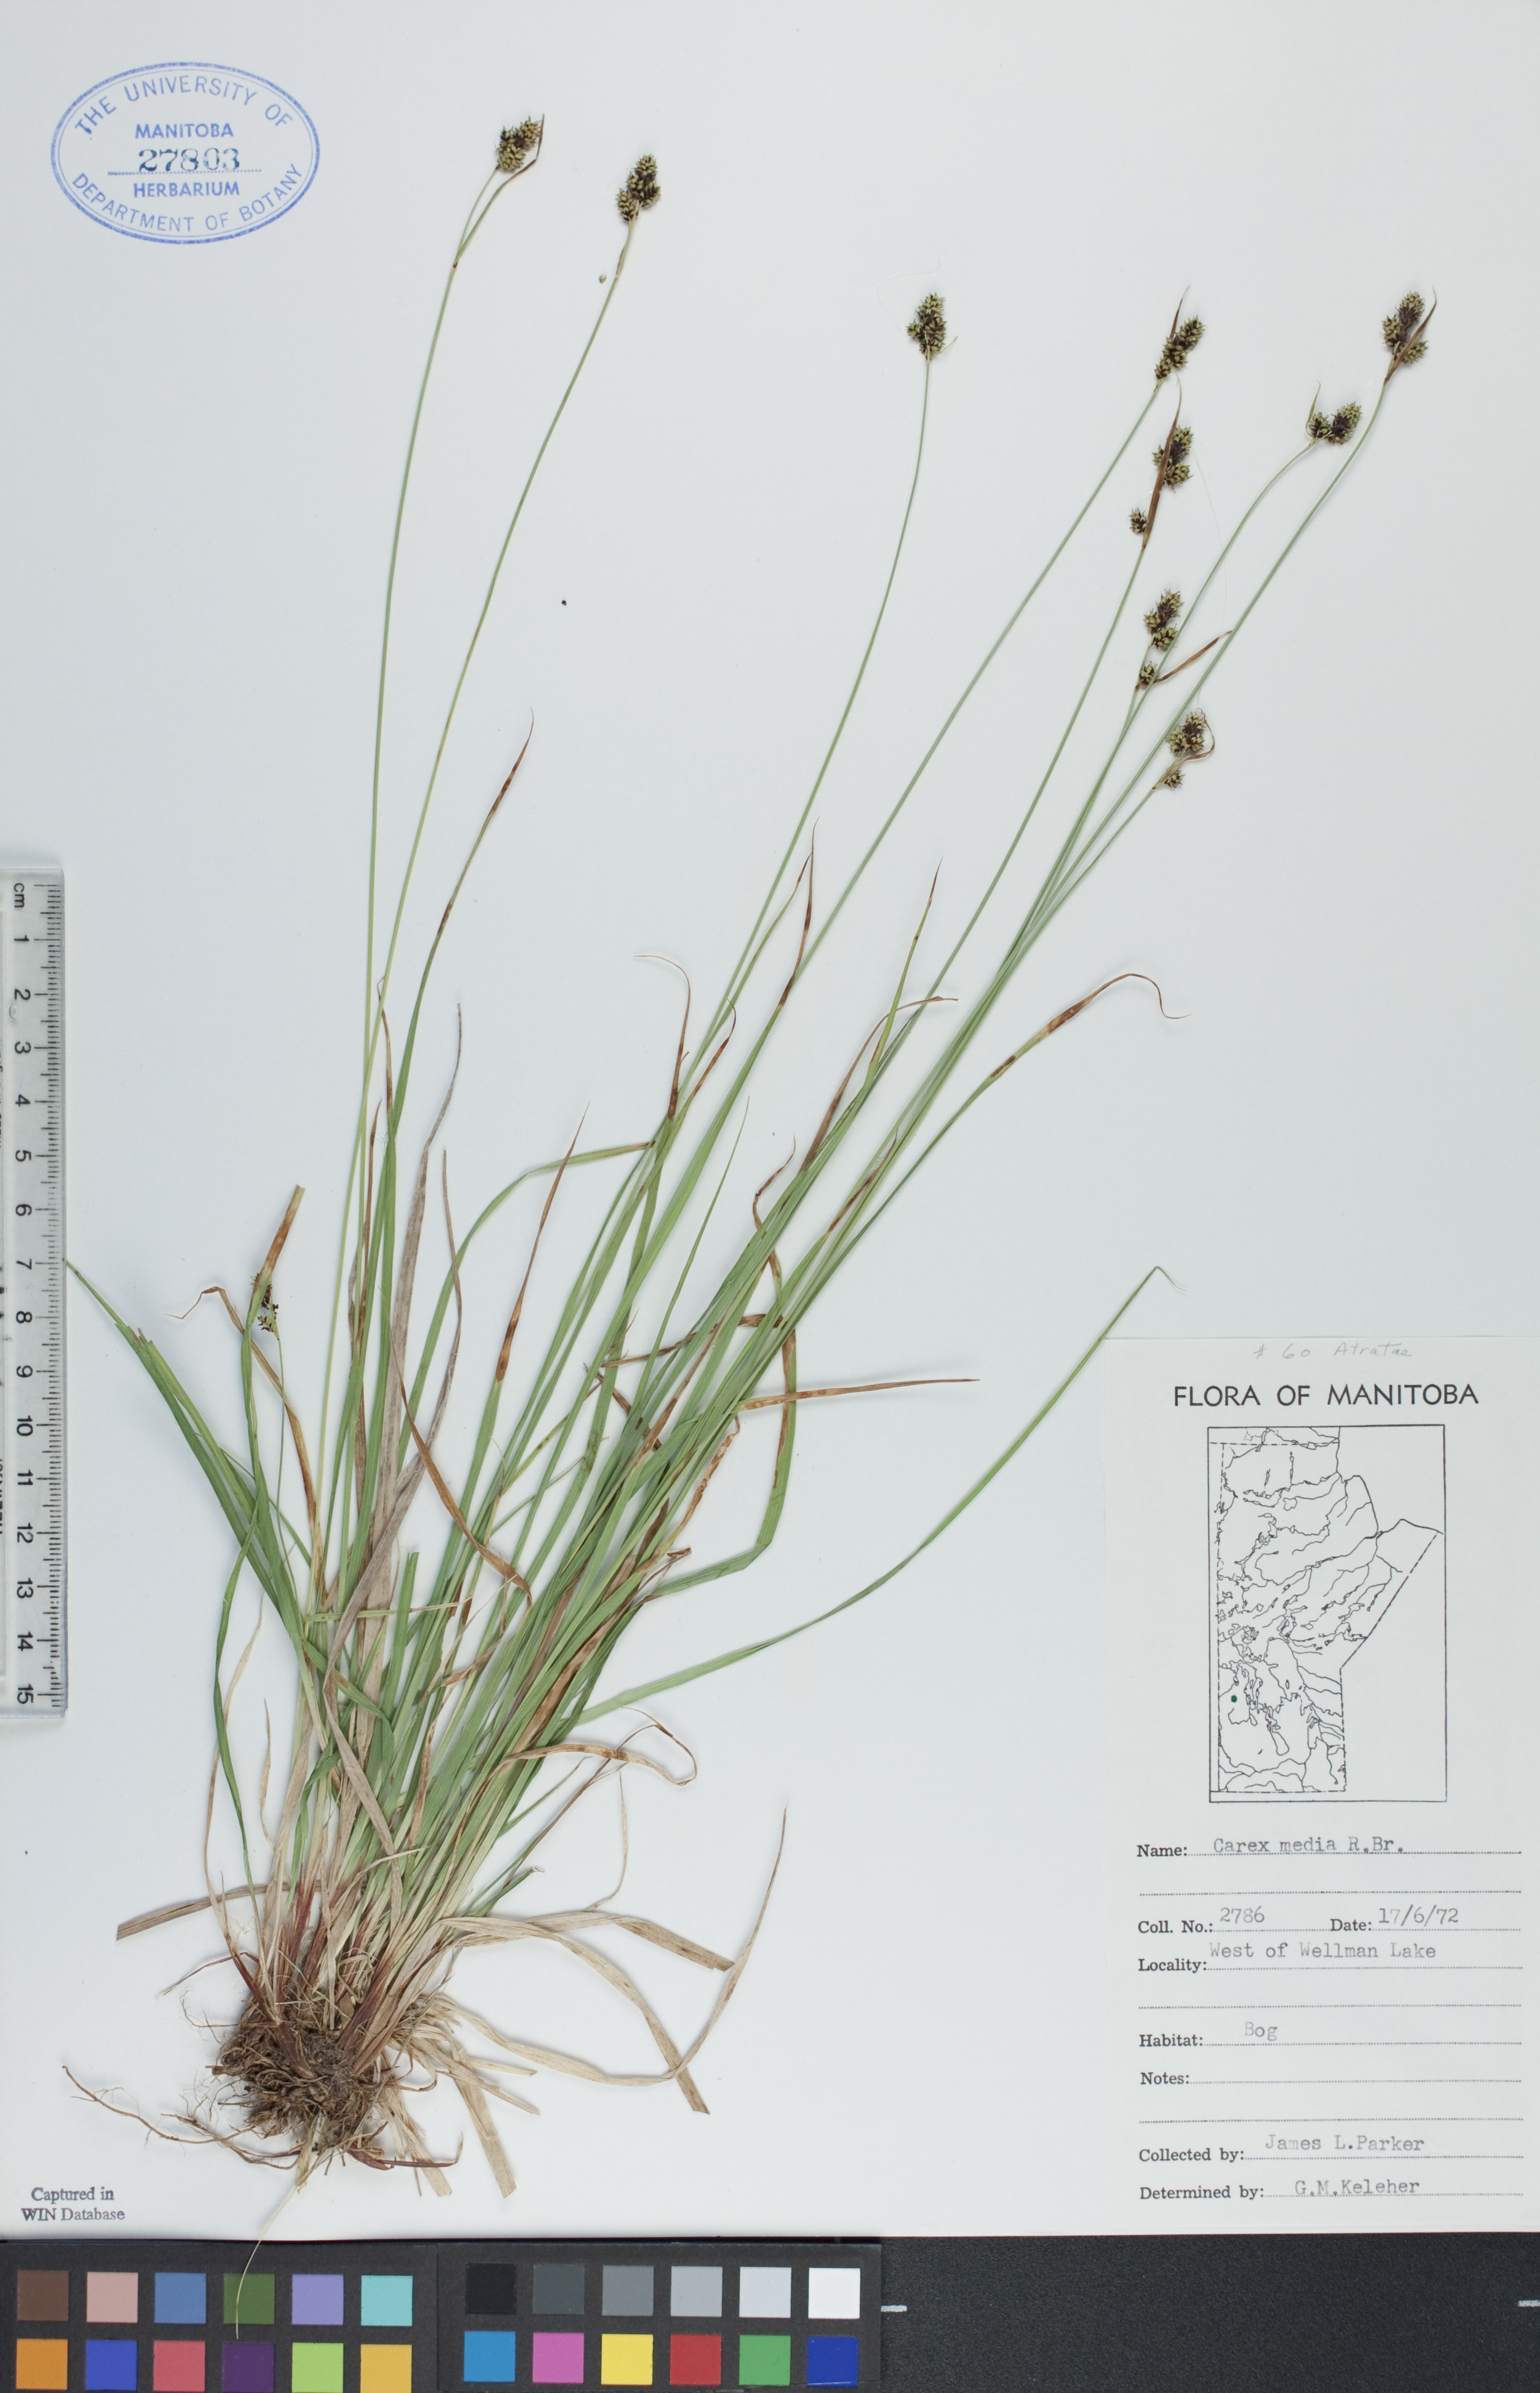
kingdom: Plantae
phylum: Tracheophyta
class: Liliopsida
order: Poales
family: Cyperaceae
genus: Carex
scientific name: Carex media
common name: Alpine sedge
